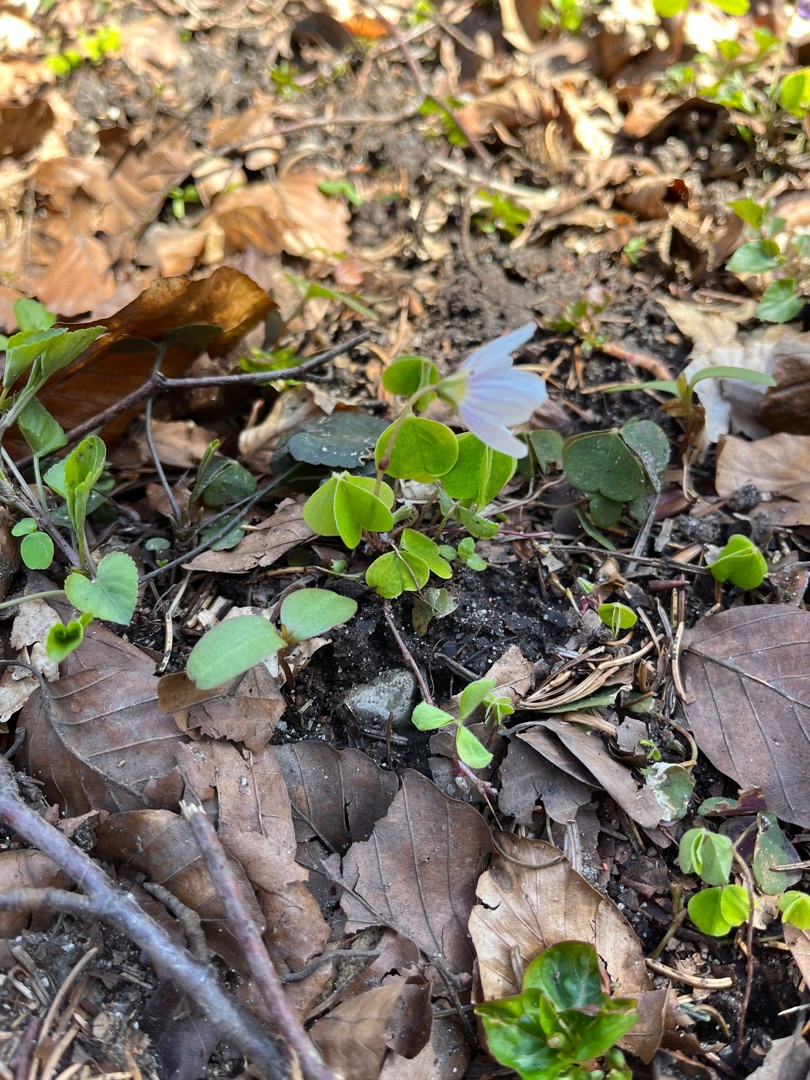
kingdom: Plantae
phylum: Tracheophyta
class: Magnoliopsida
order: Oxalidales
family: Oxalidaceae
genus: Oxalis
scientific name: Oxalis acetosella
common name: Skovsyre
